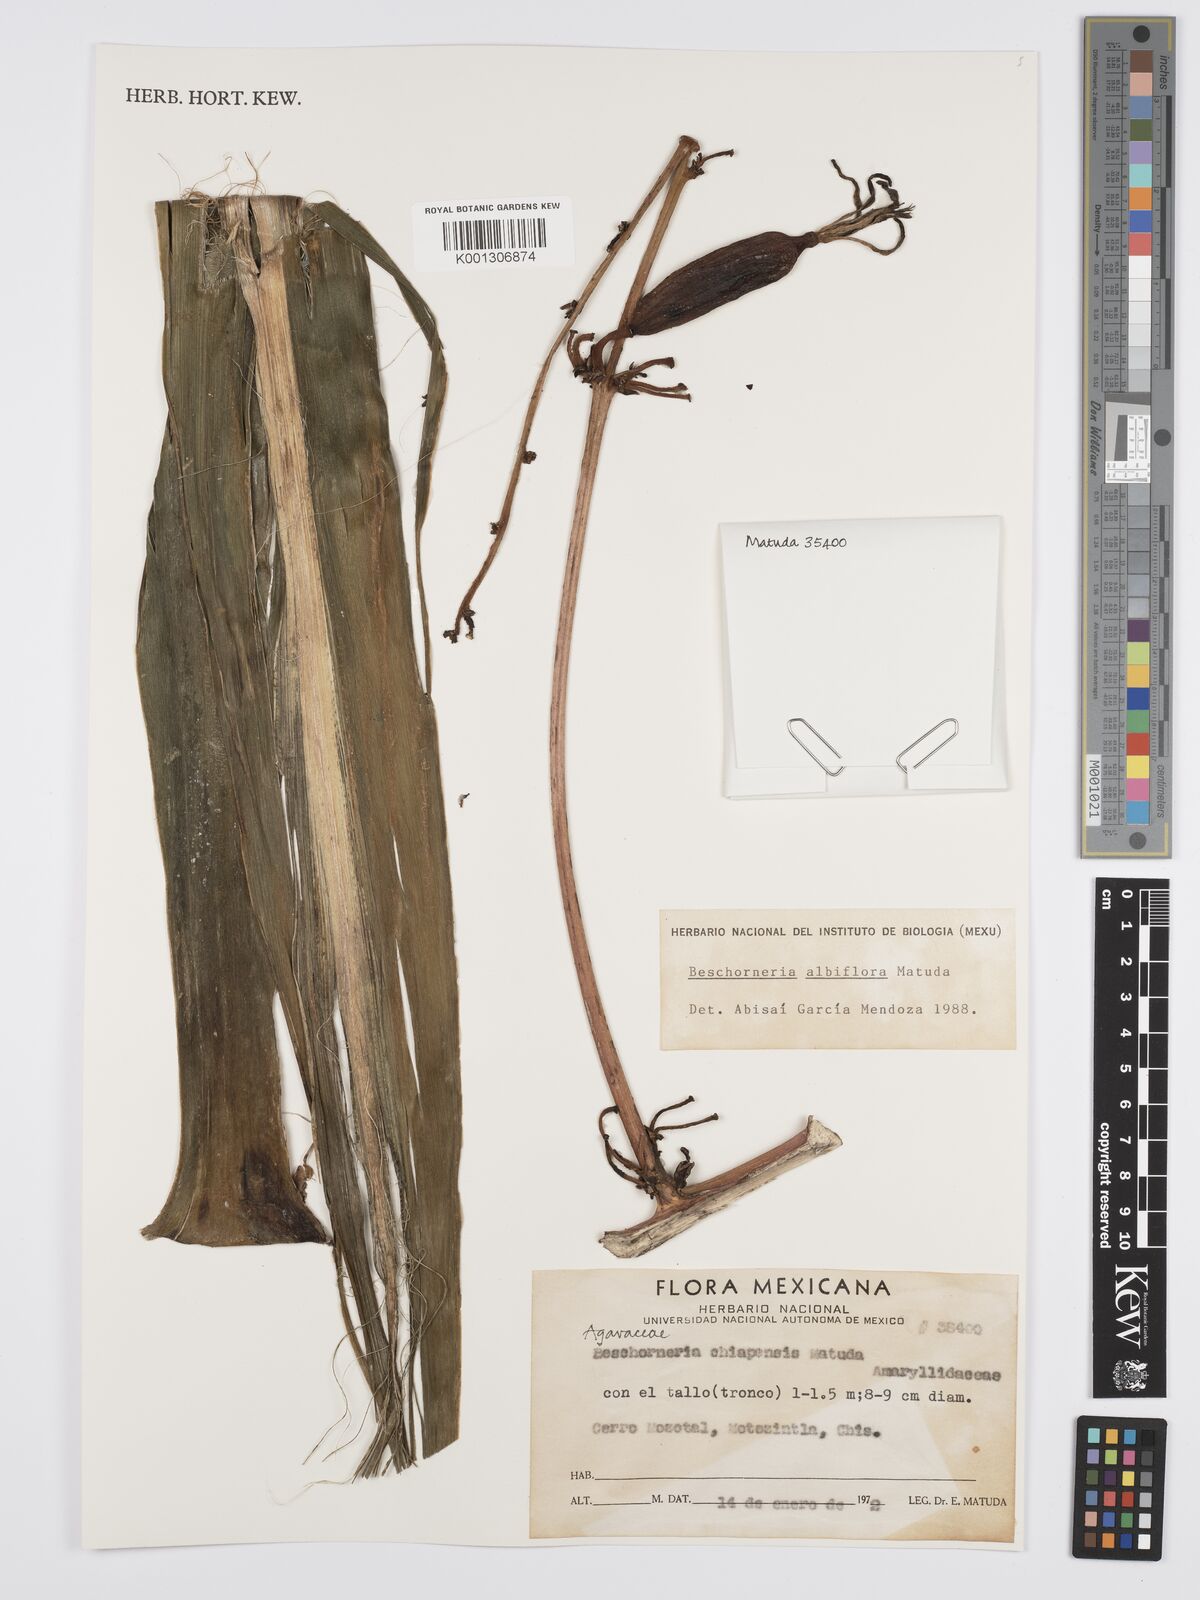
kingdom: Plantae
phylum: Tracheophyta
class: Liliopsida
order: Asparagales
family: Asparagaceae
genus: Beschorneria
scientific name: Beschorneria albiflora
